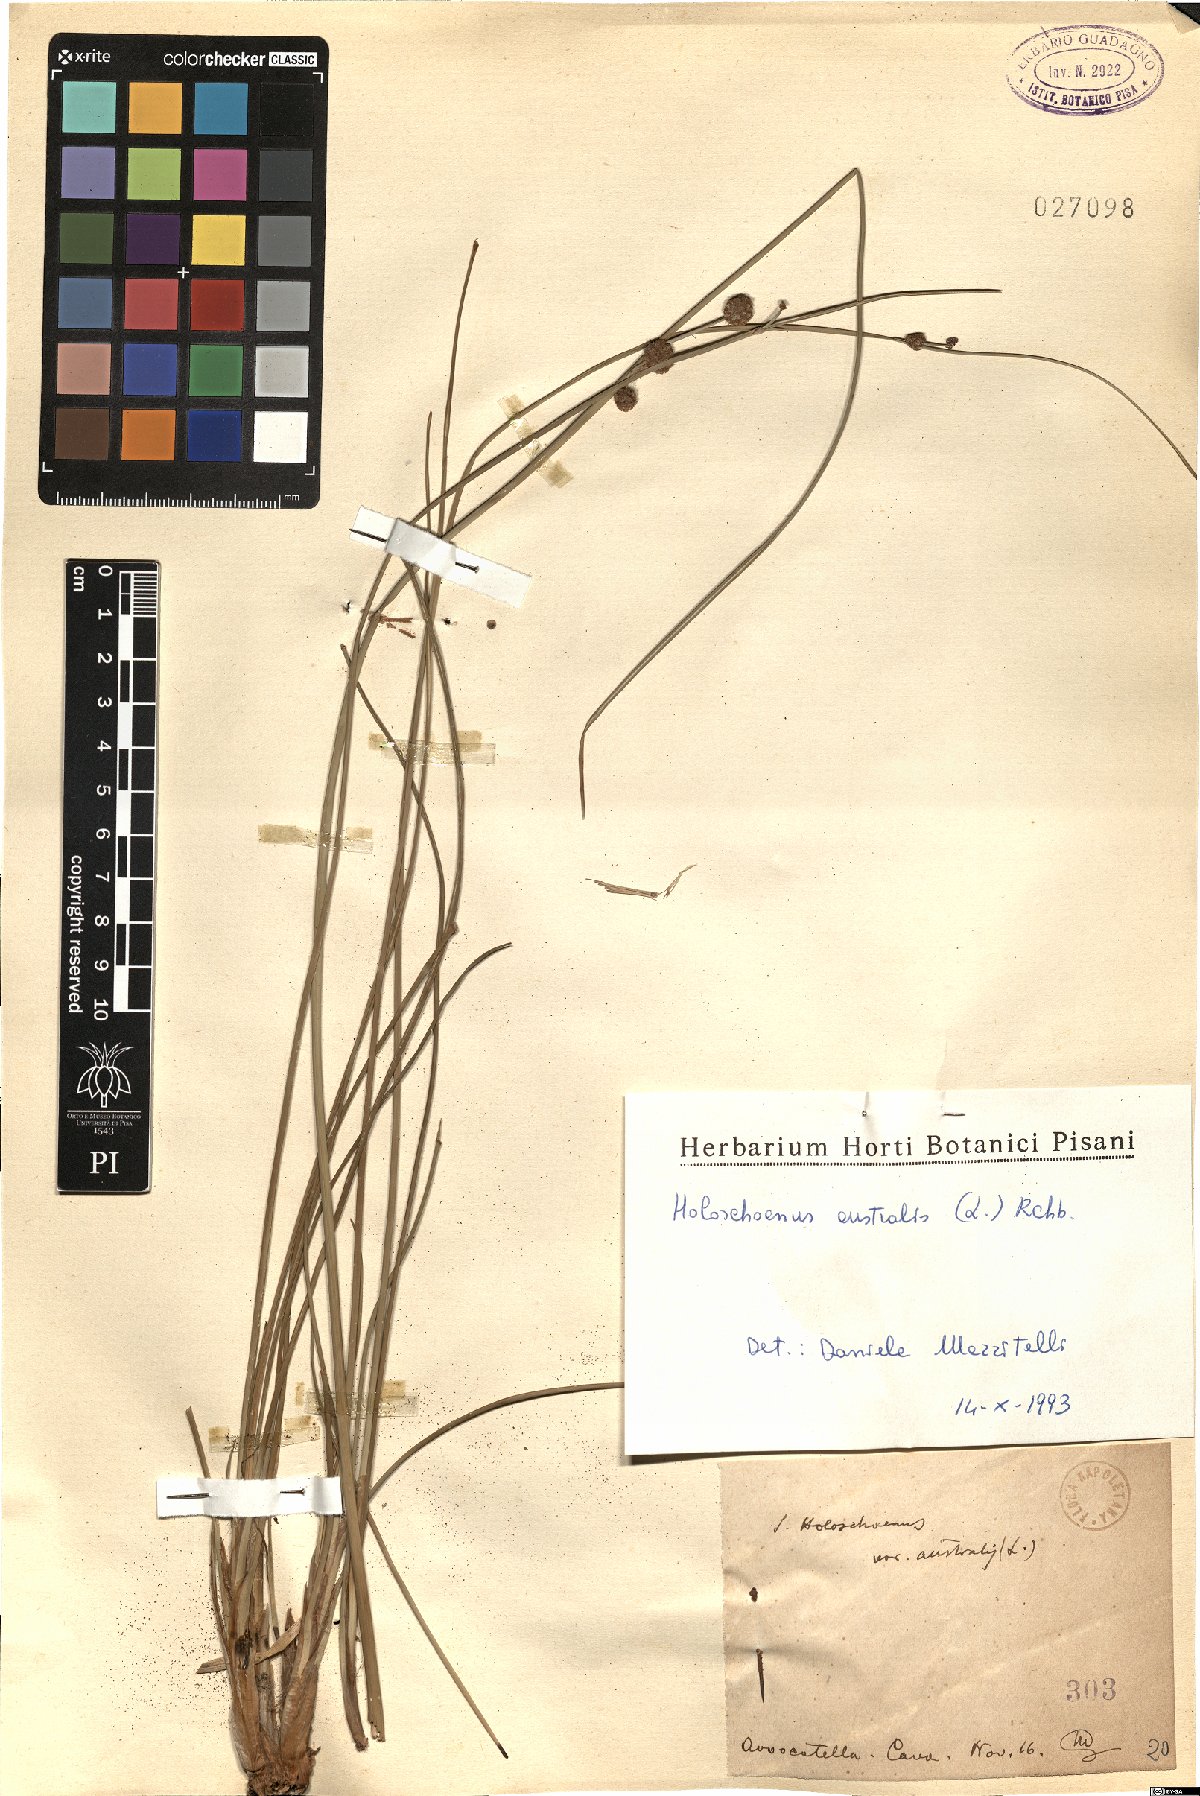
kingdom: Plantae
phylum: Tracheophyta
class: Liliopsida
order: Poales
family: Cyperaceae
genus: Scirpoides
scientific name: Scirpoides holoschoenus
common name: Round-headed club-rush
